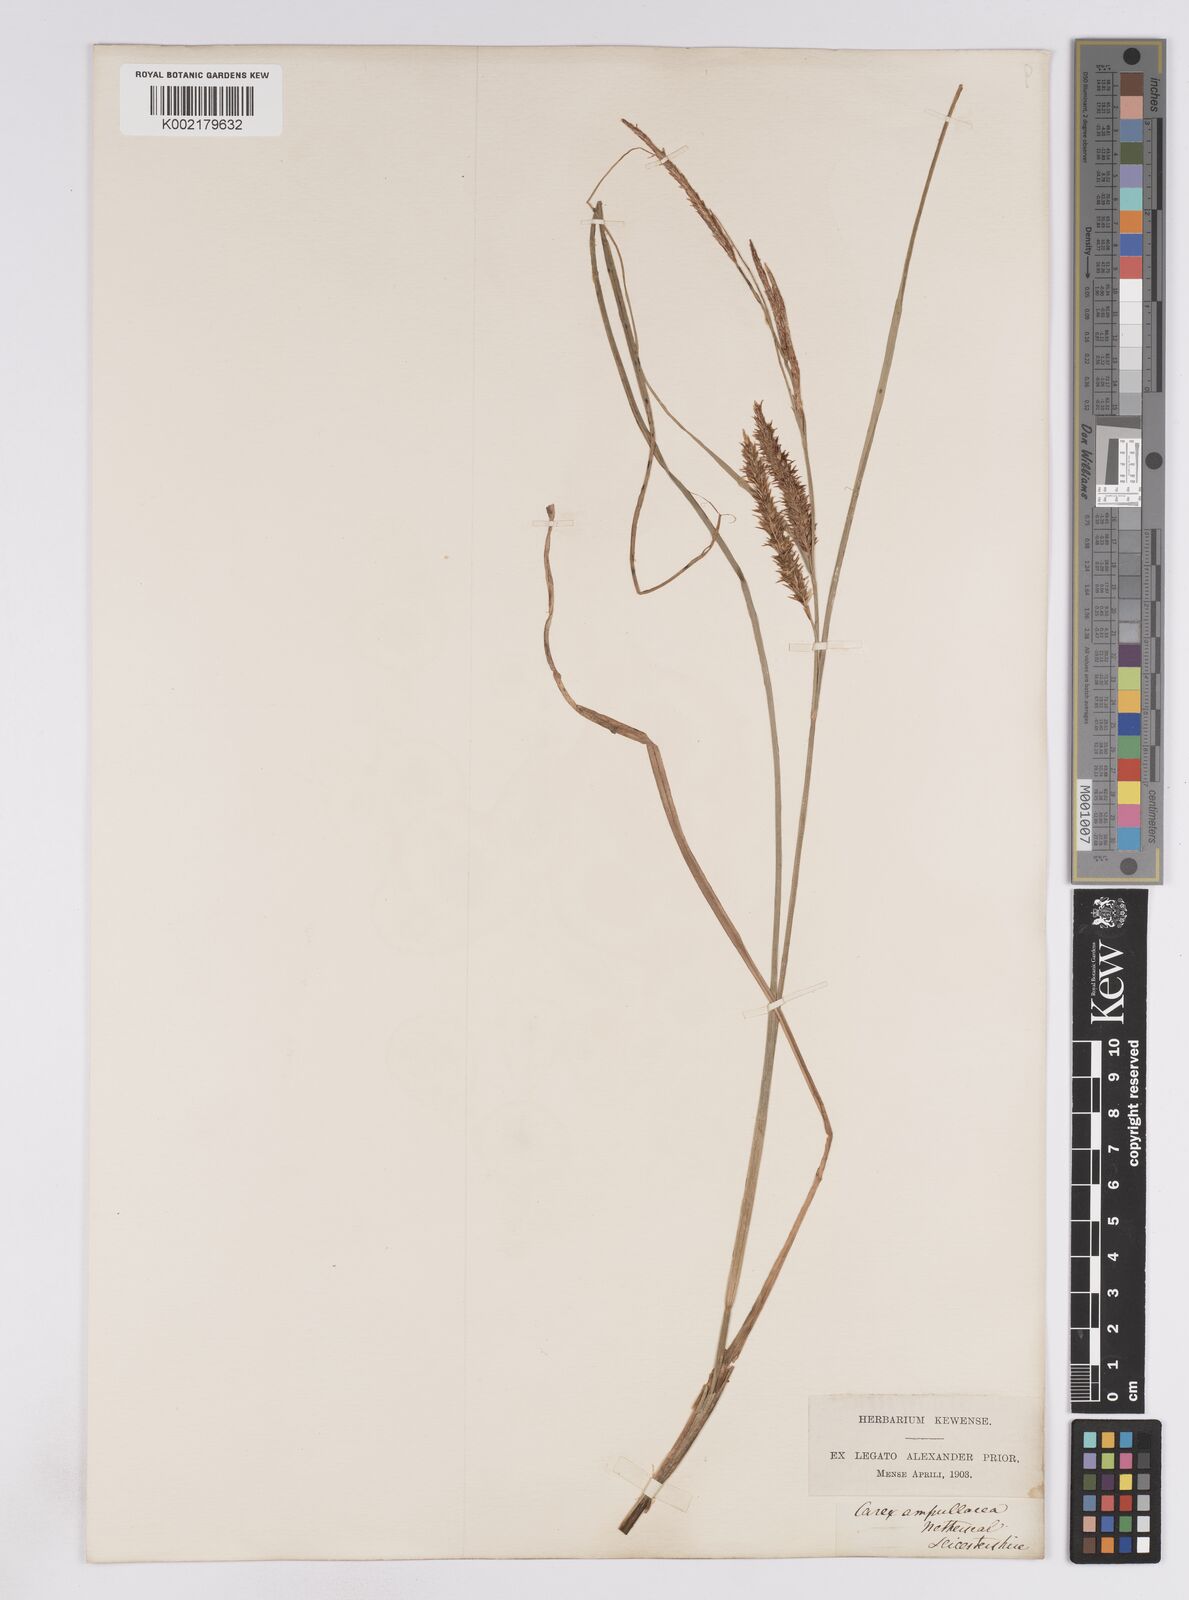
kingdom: Plantae
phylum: Tracheophyta
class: Liliopsida
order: Poales
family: Cyperaceae
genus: Carex
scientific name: Carex rostrata
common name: Bottle sedge
